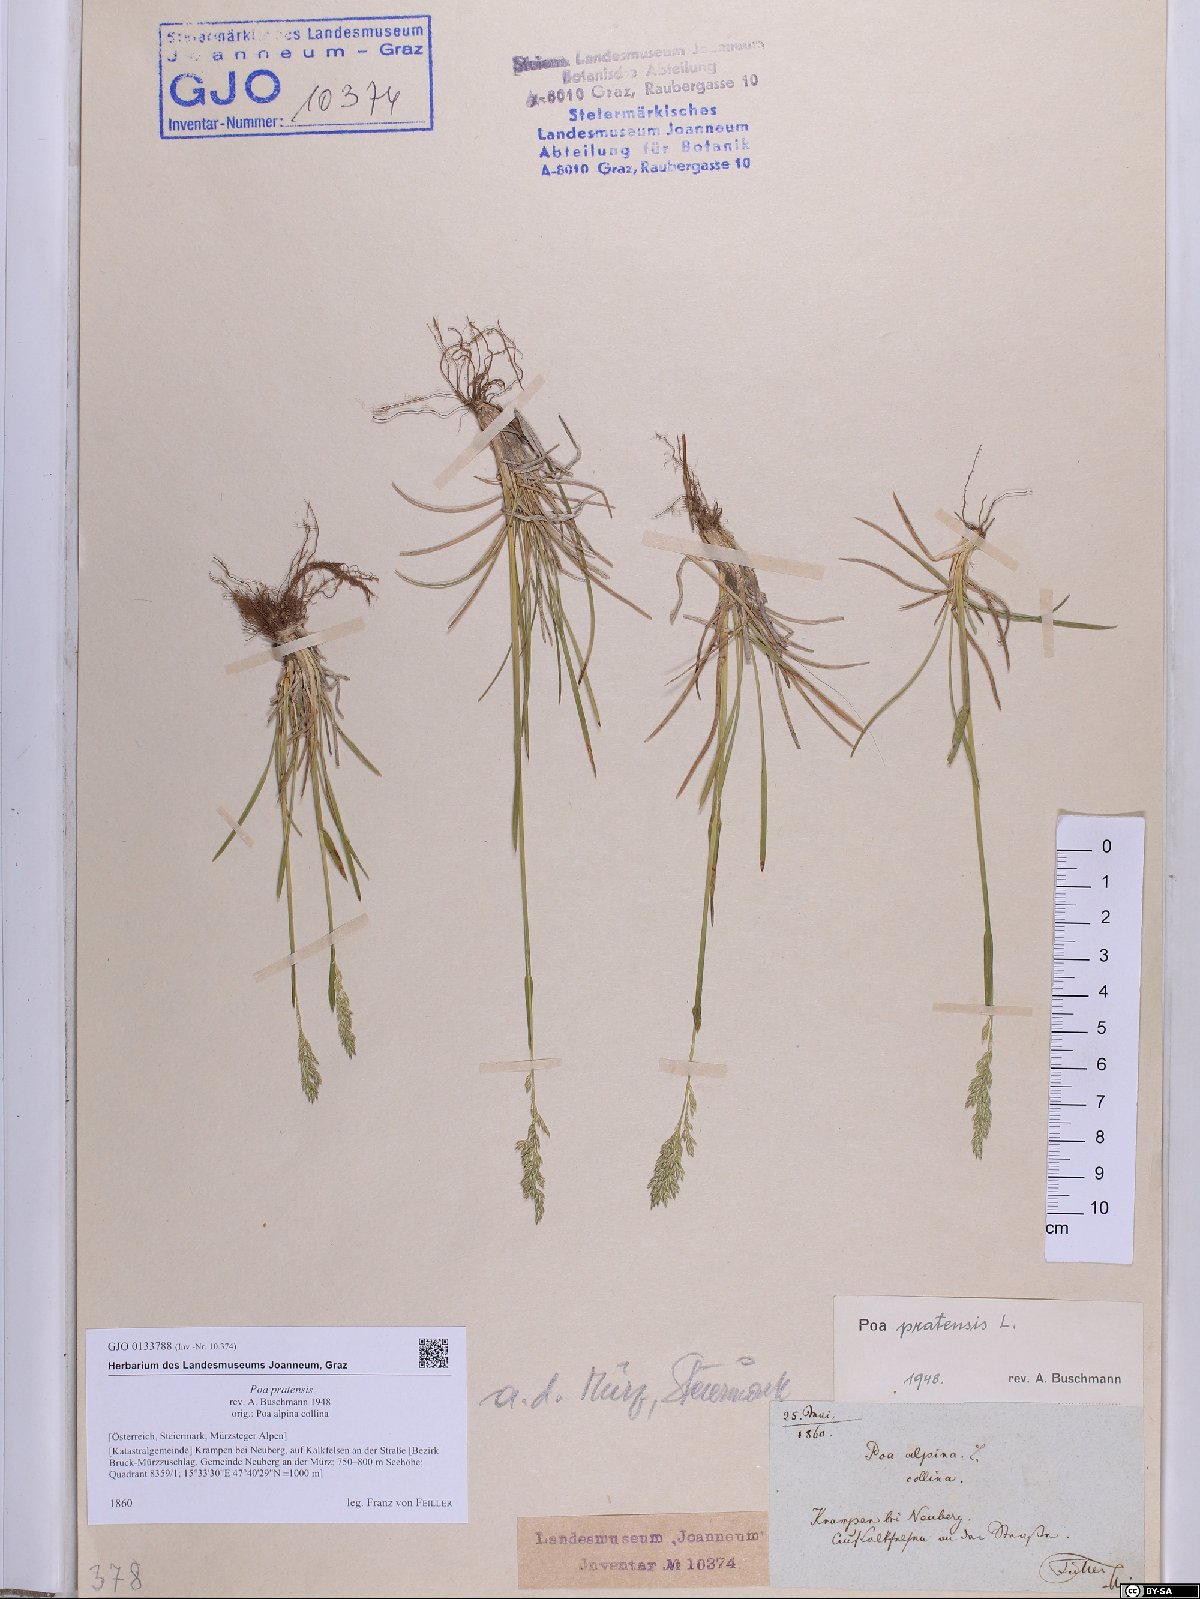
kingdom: Plantae
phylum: Tracheophyta
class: Liliopsida
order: Poales
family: Poaceae
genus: Poa
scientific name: Poa pratensis
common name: Kentucky bluegrass
